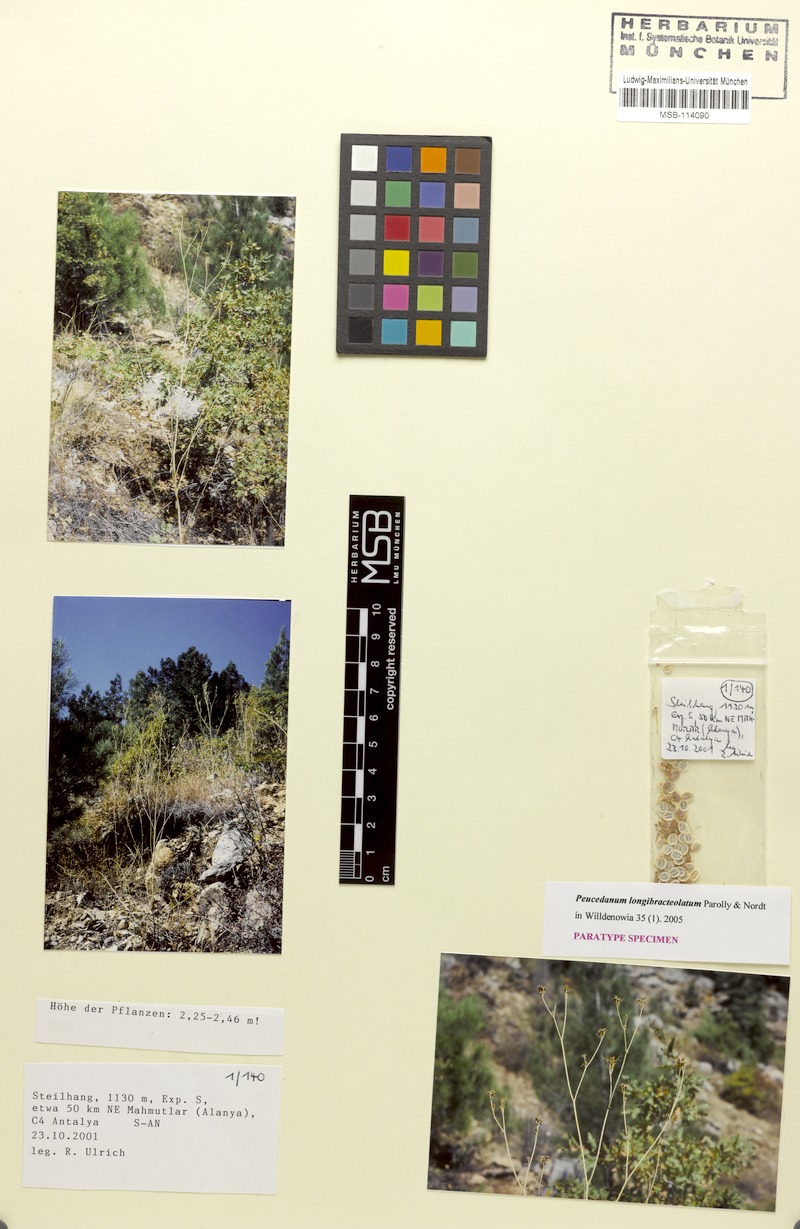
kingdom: Plantae
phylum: Tracheophyta
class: Magnoliopsida
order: Apiales
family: Apiaceae
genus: Dichoropetalum
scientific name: Dichoropetalum longibracteolatum
